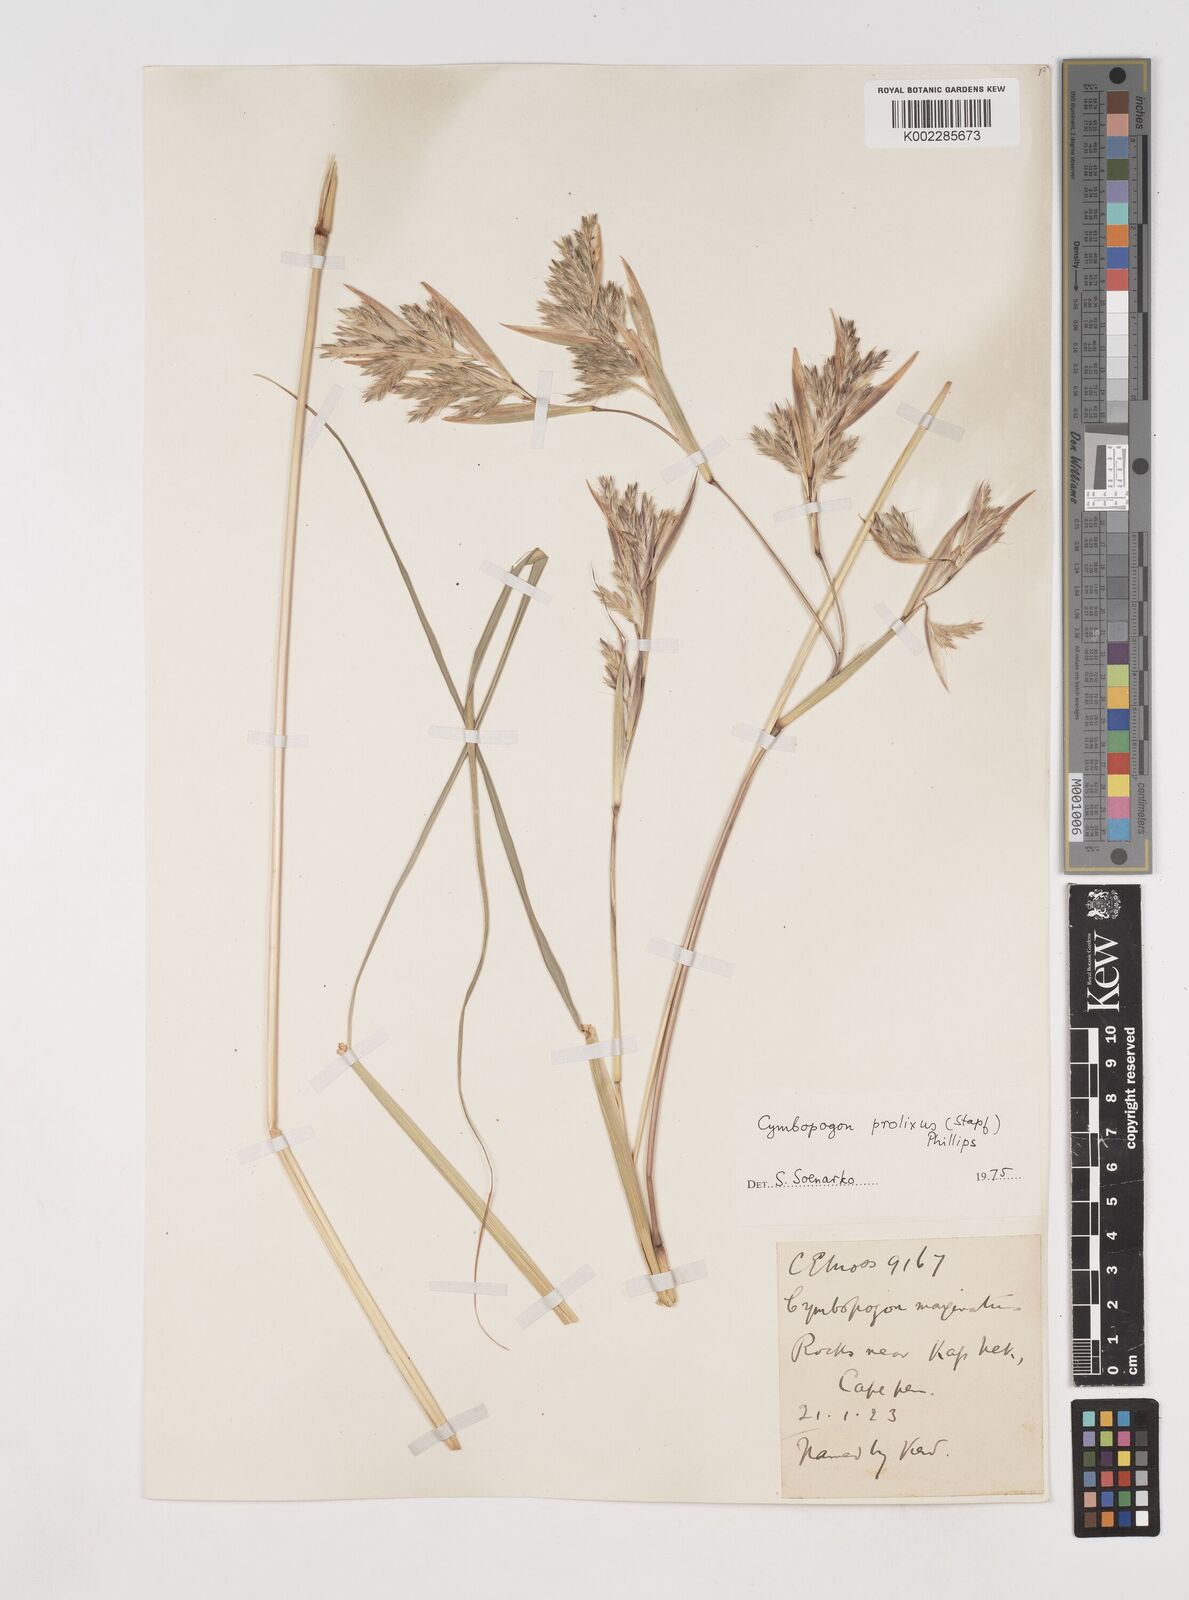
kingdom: Plantae
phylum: Tracheophyta
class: Liliopsida
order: Poales
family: Poaceae
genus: Cymbopogon
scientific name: Cymbopogon marginatus
